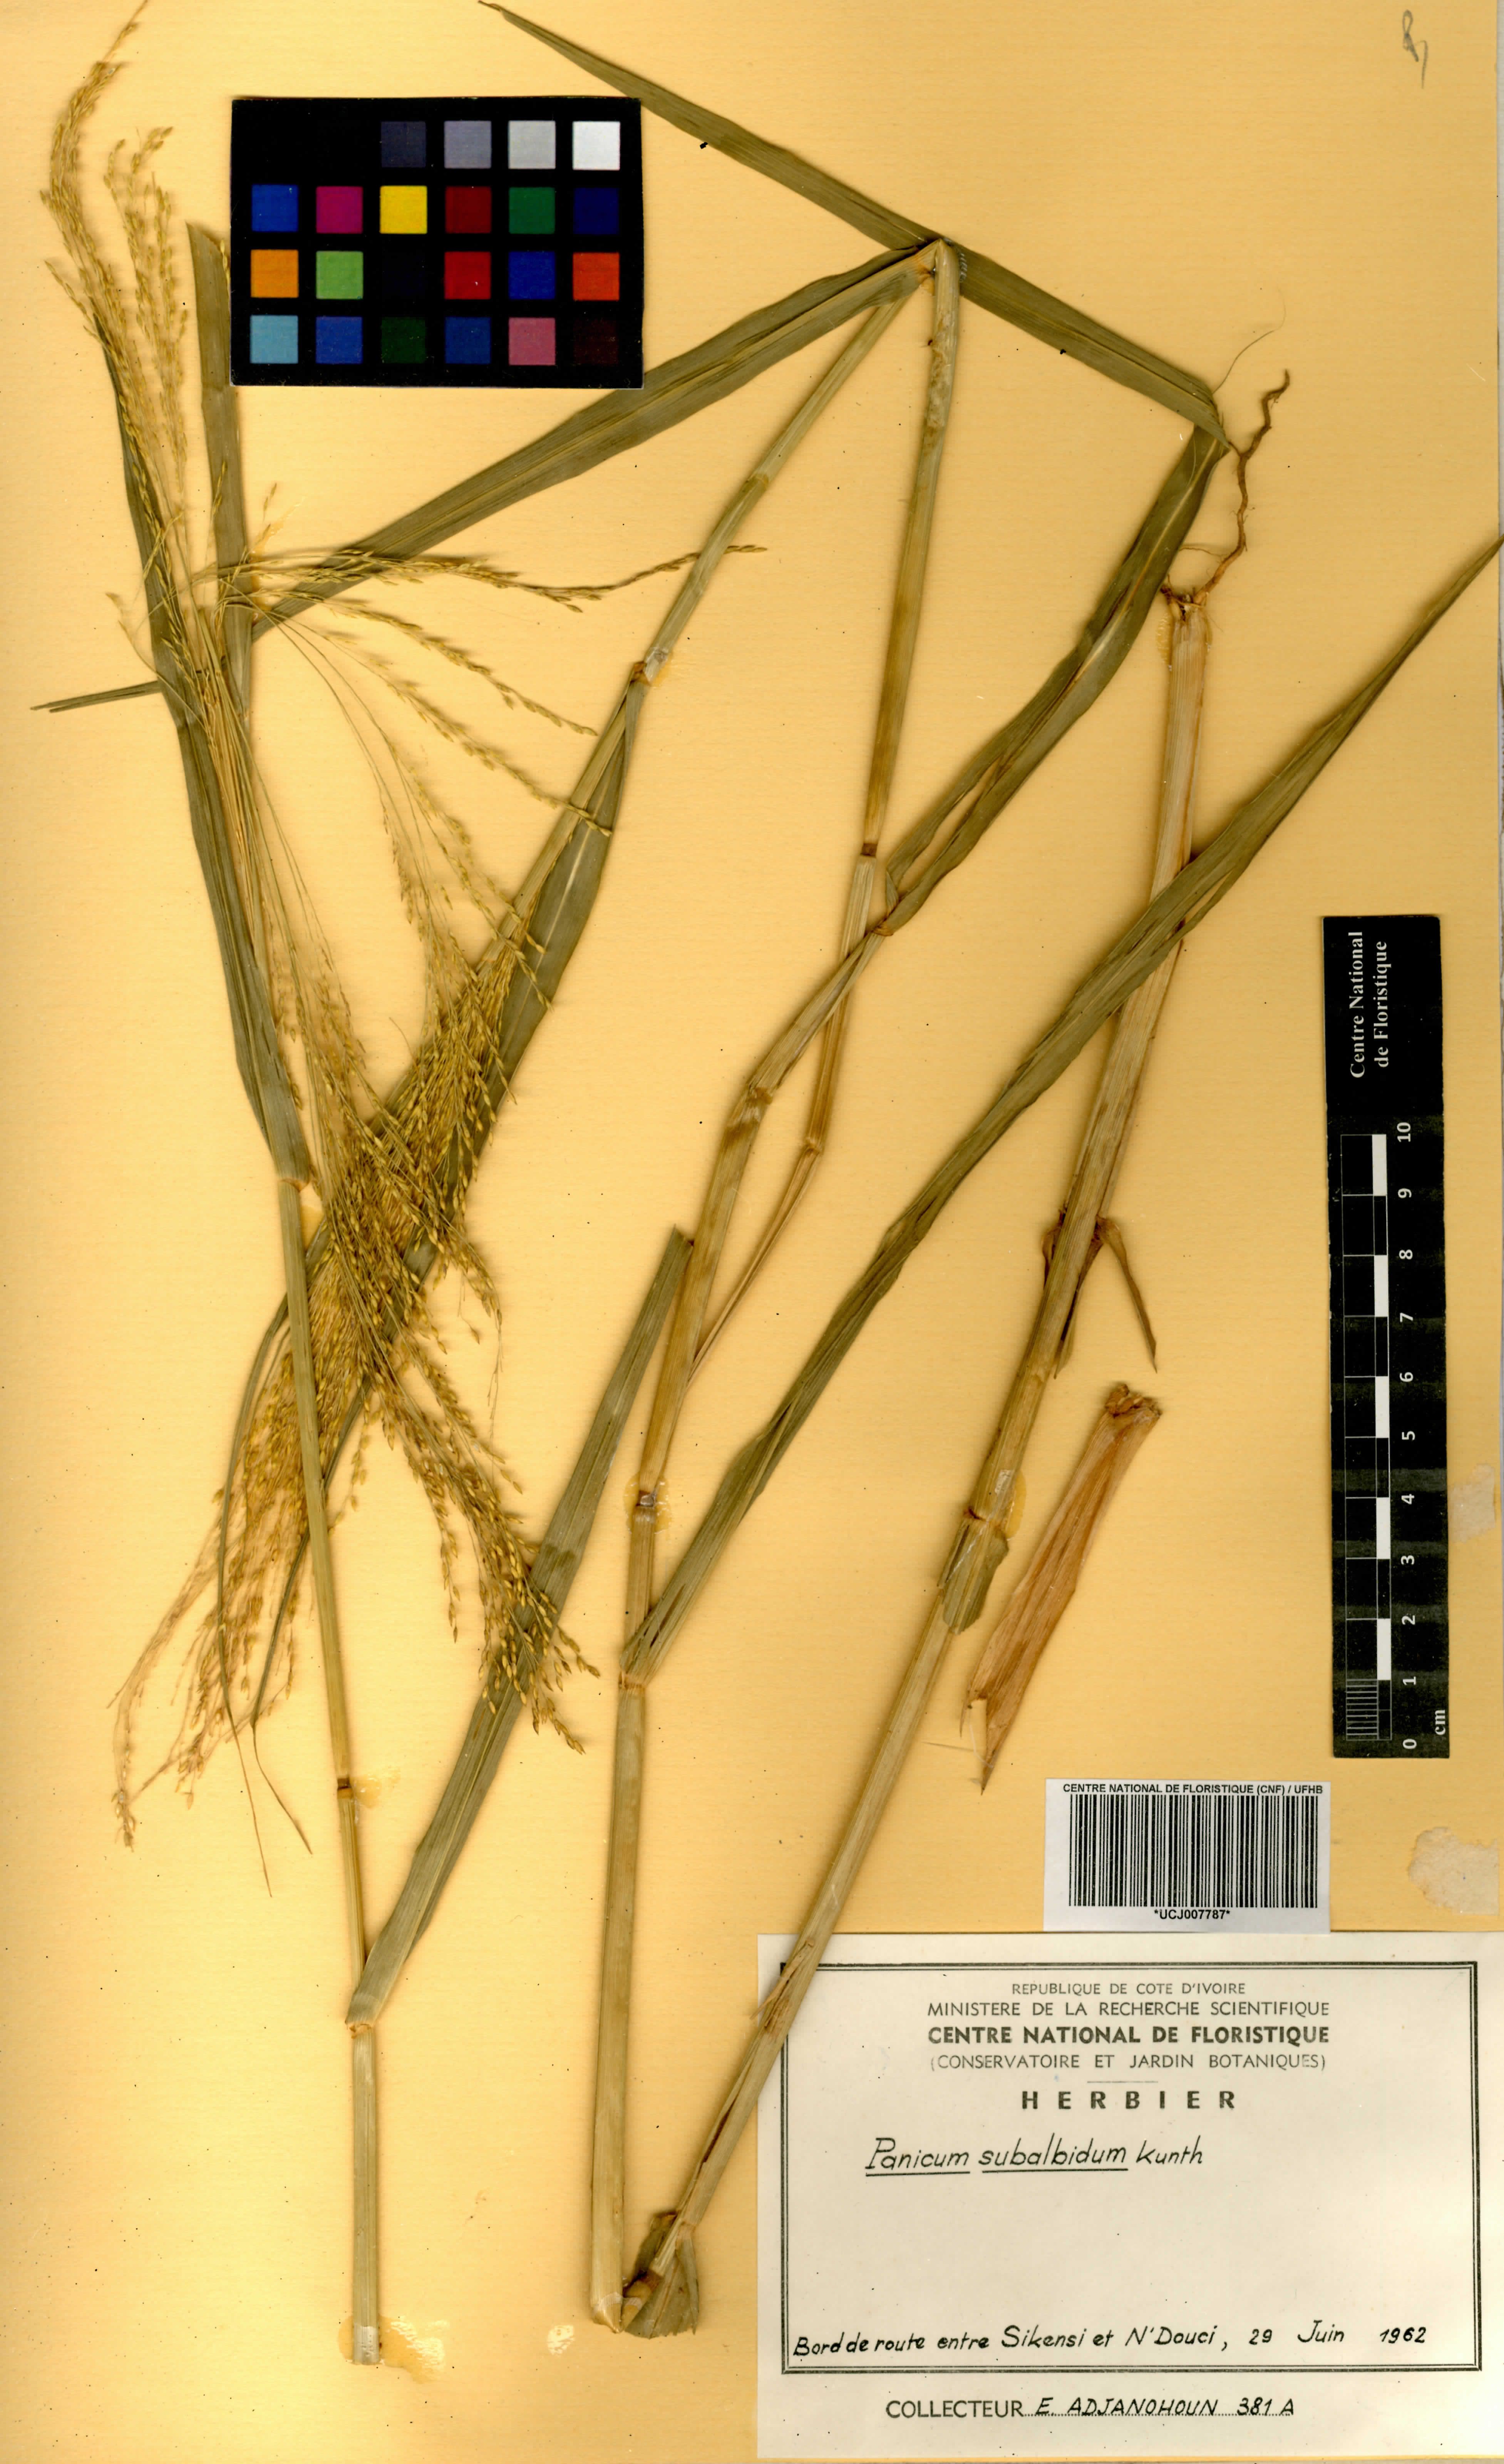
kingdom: Plantae
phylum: Tracheophyta
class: Liliopsida
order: Poales
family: Poaceae
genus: Panicum
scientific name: Panicum subalbidum
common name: Elbow buffalo grass
